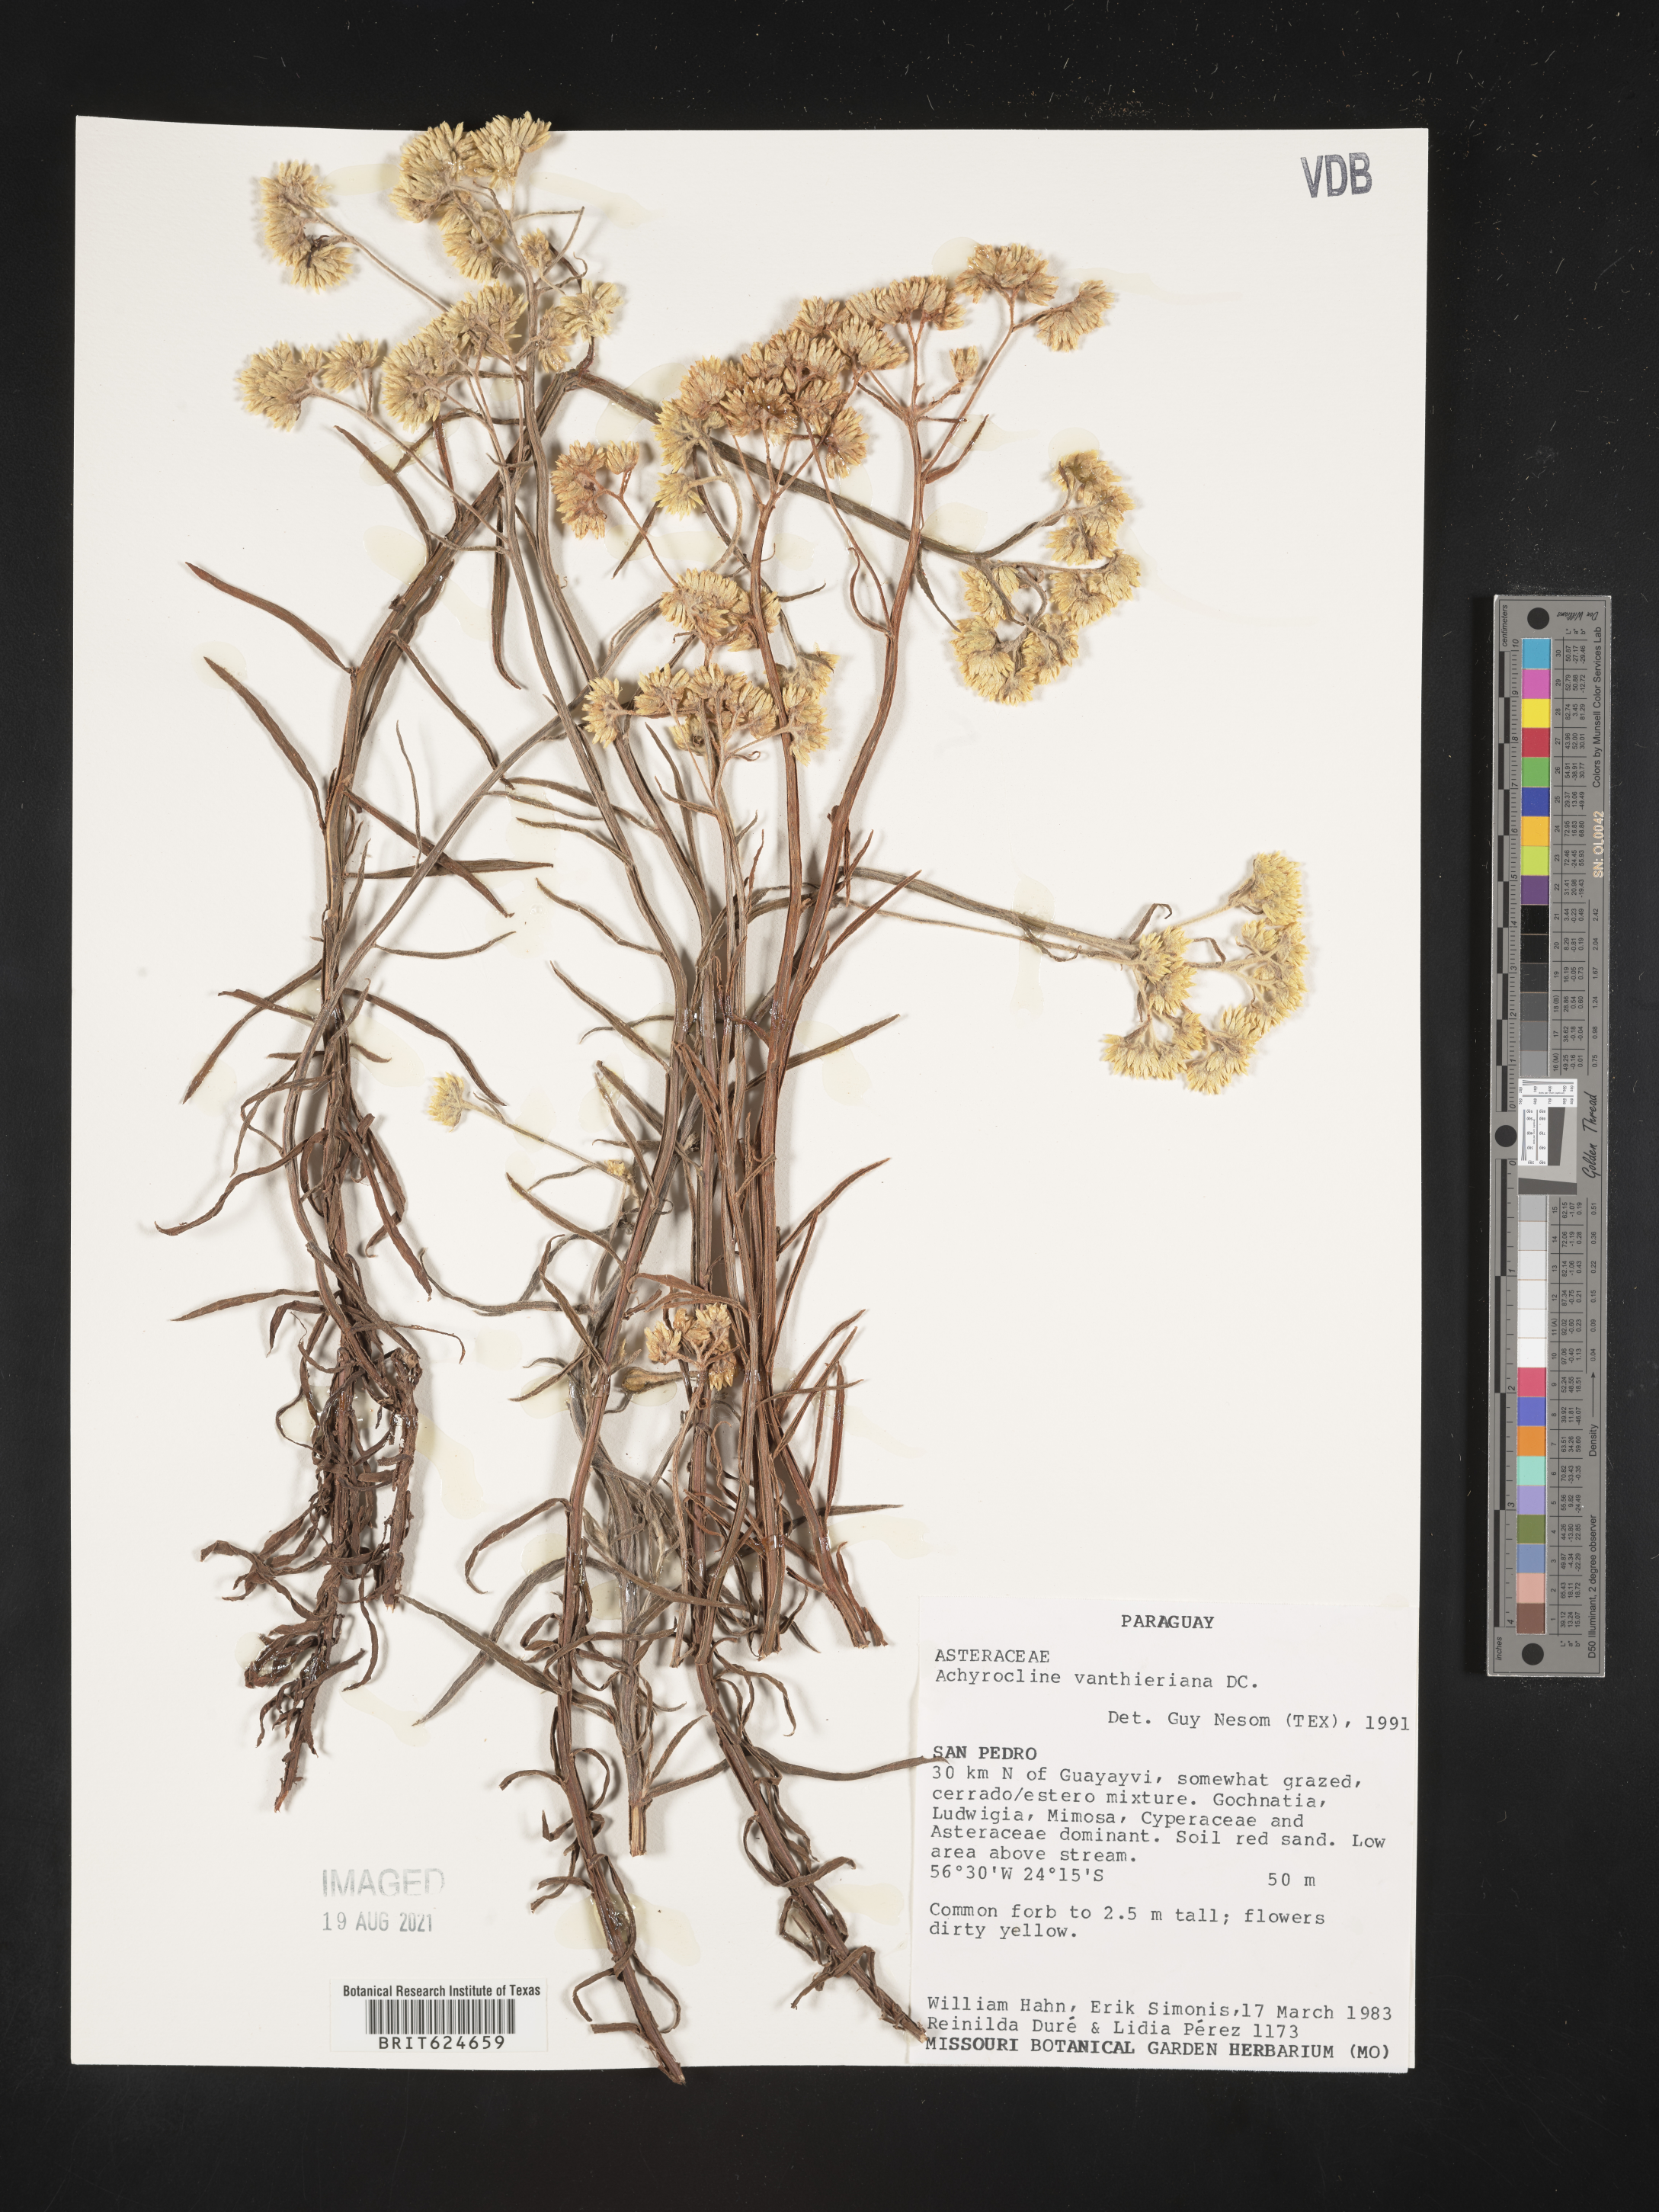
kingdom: Plantae
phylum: Tracheophyta
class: Magnoliopsida
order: Asterales
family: Asteraceae
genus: Achyrocline
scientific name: Achyrocline vauthieriana
